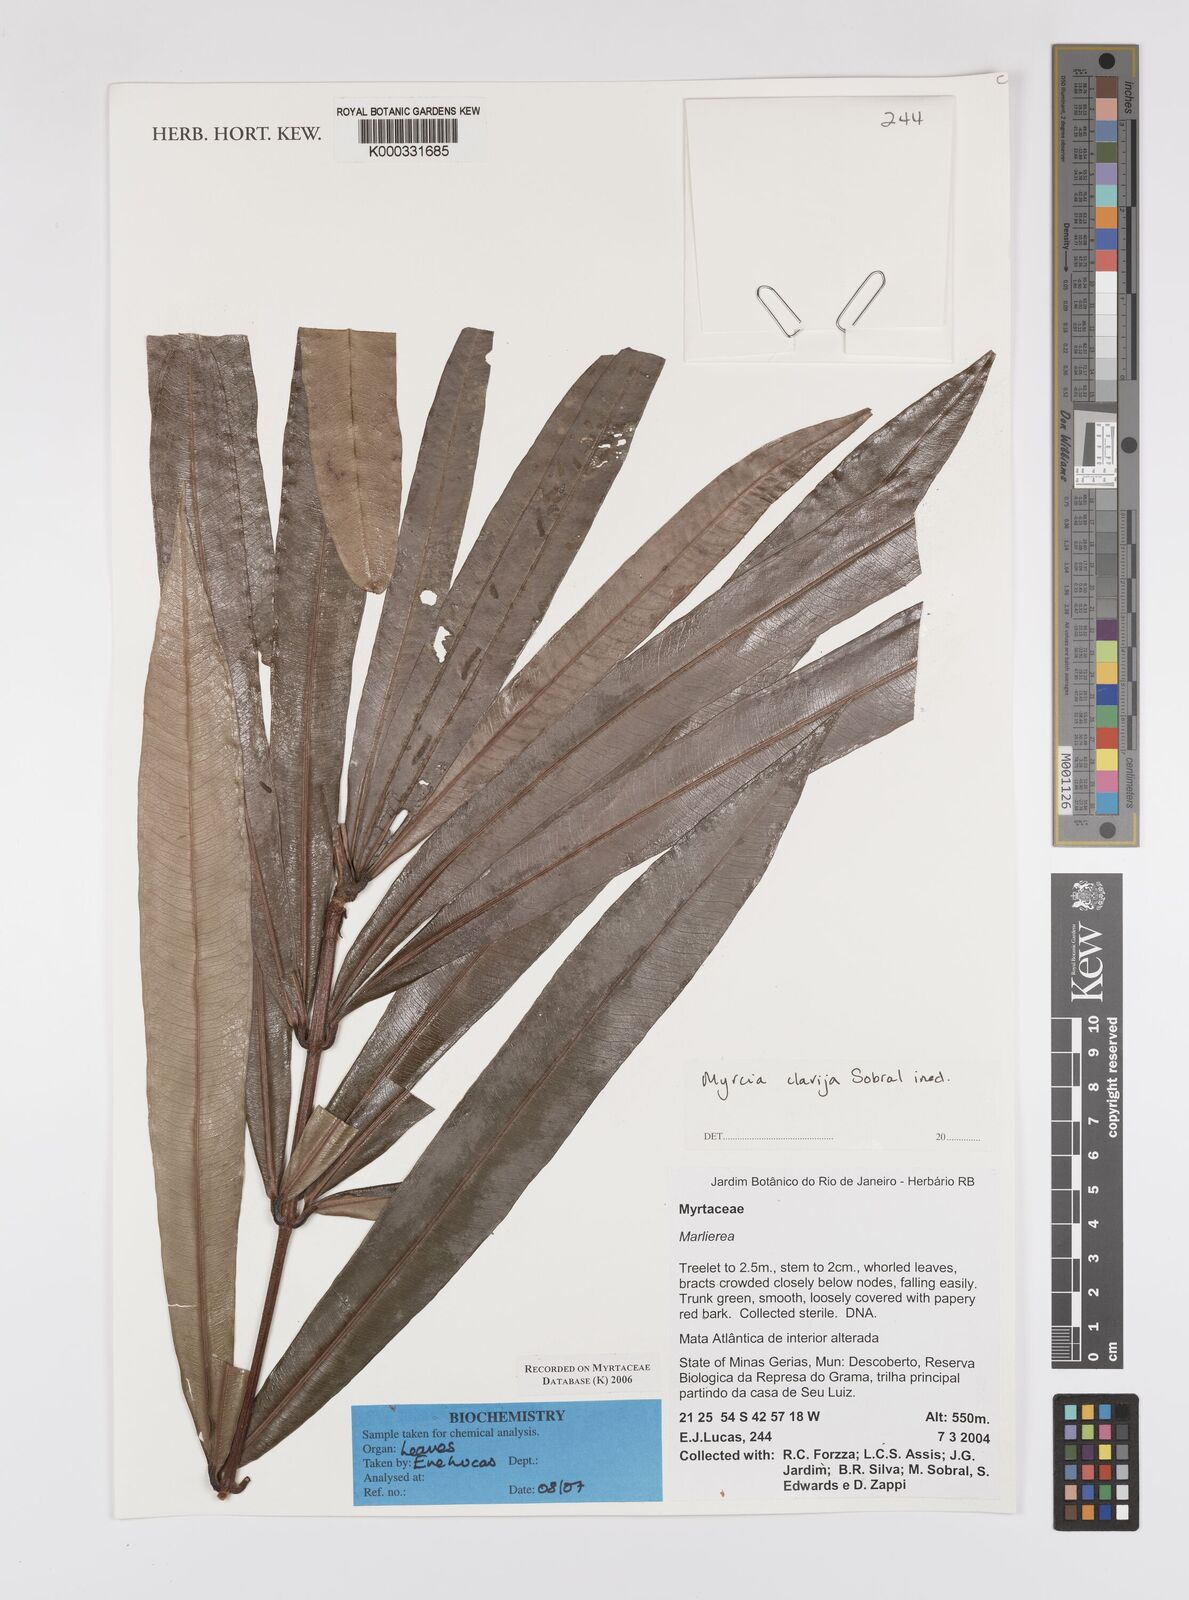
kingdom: Plantae
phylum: Tracheophyta
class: Magnoliopsida
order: Myrtales
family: Myrtaceae
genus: Myrcia
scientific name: Myrcia clavija
